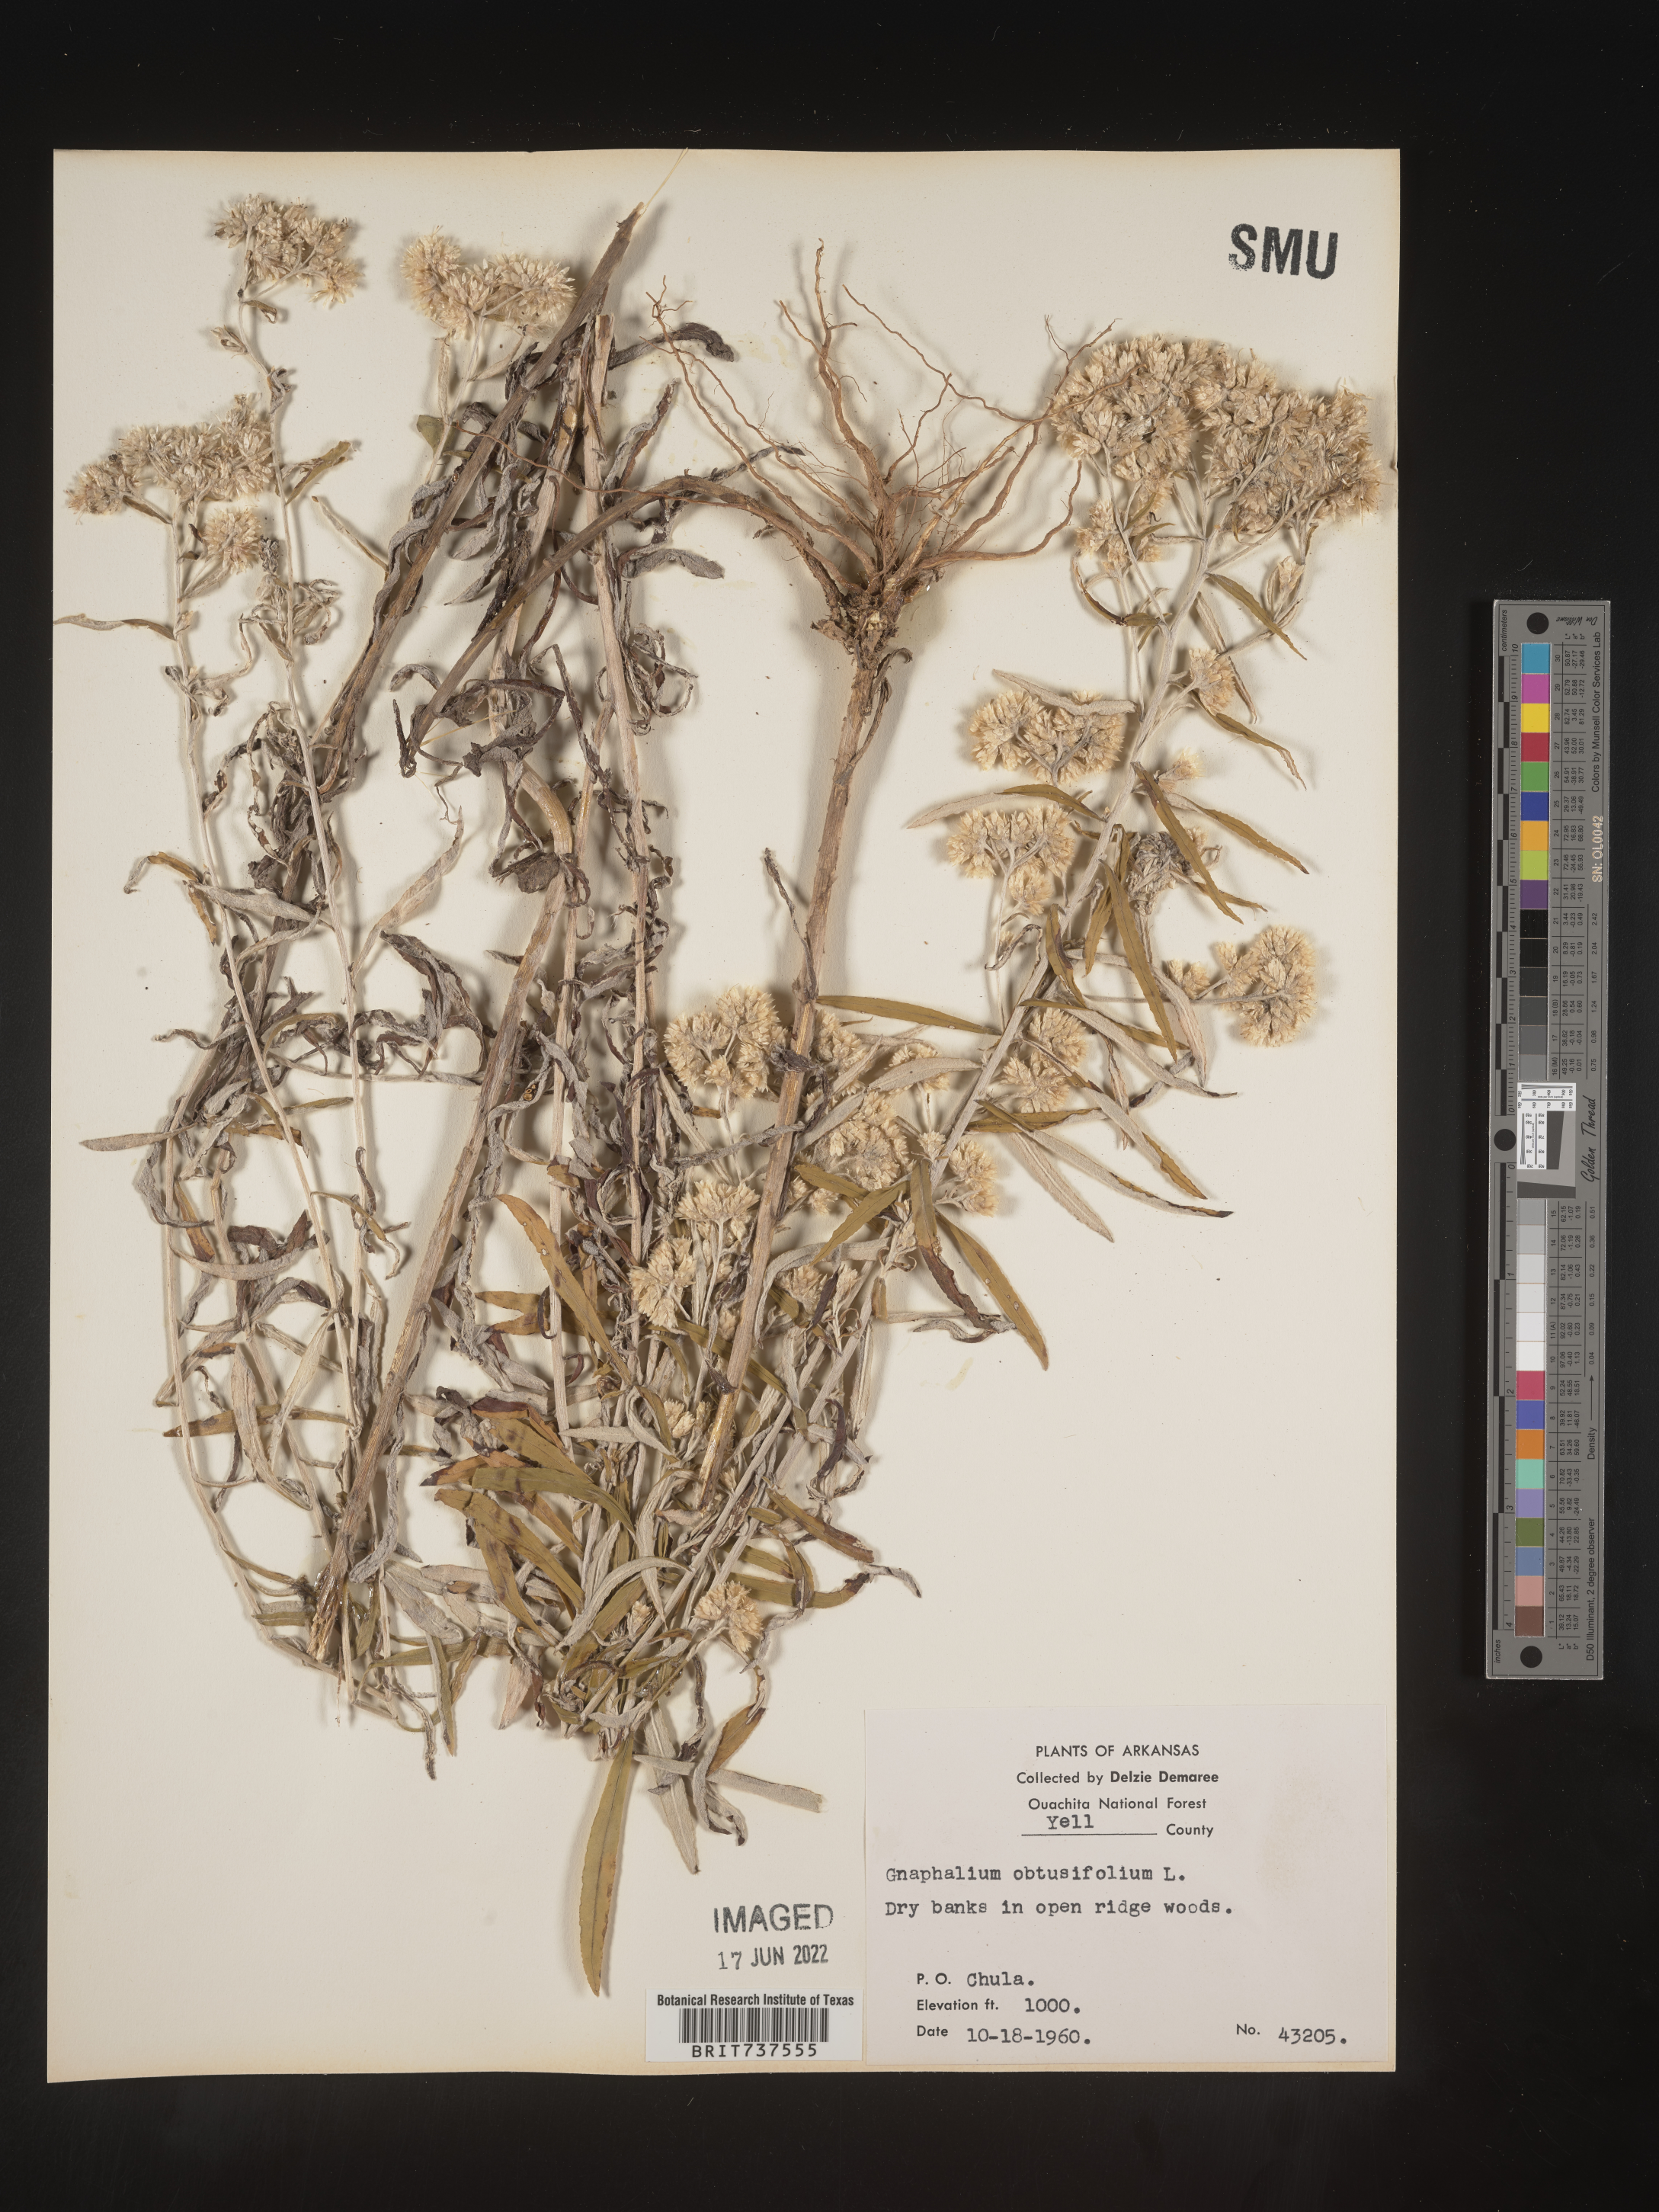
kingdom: Plantae
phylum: Tracheophyta
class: Magnoliopsida
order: Asterales
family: Asteraceae
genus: Pseudognaphalium
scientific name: Pseudognaphalium obtusifolium
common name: Eastern rabbit-tobacco
